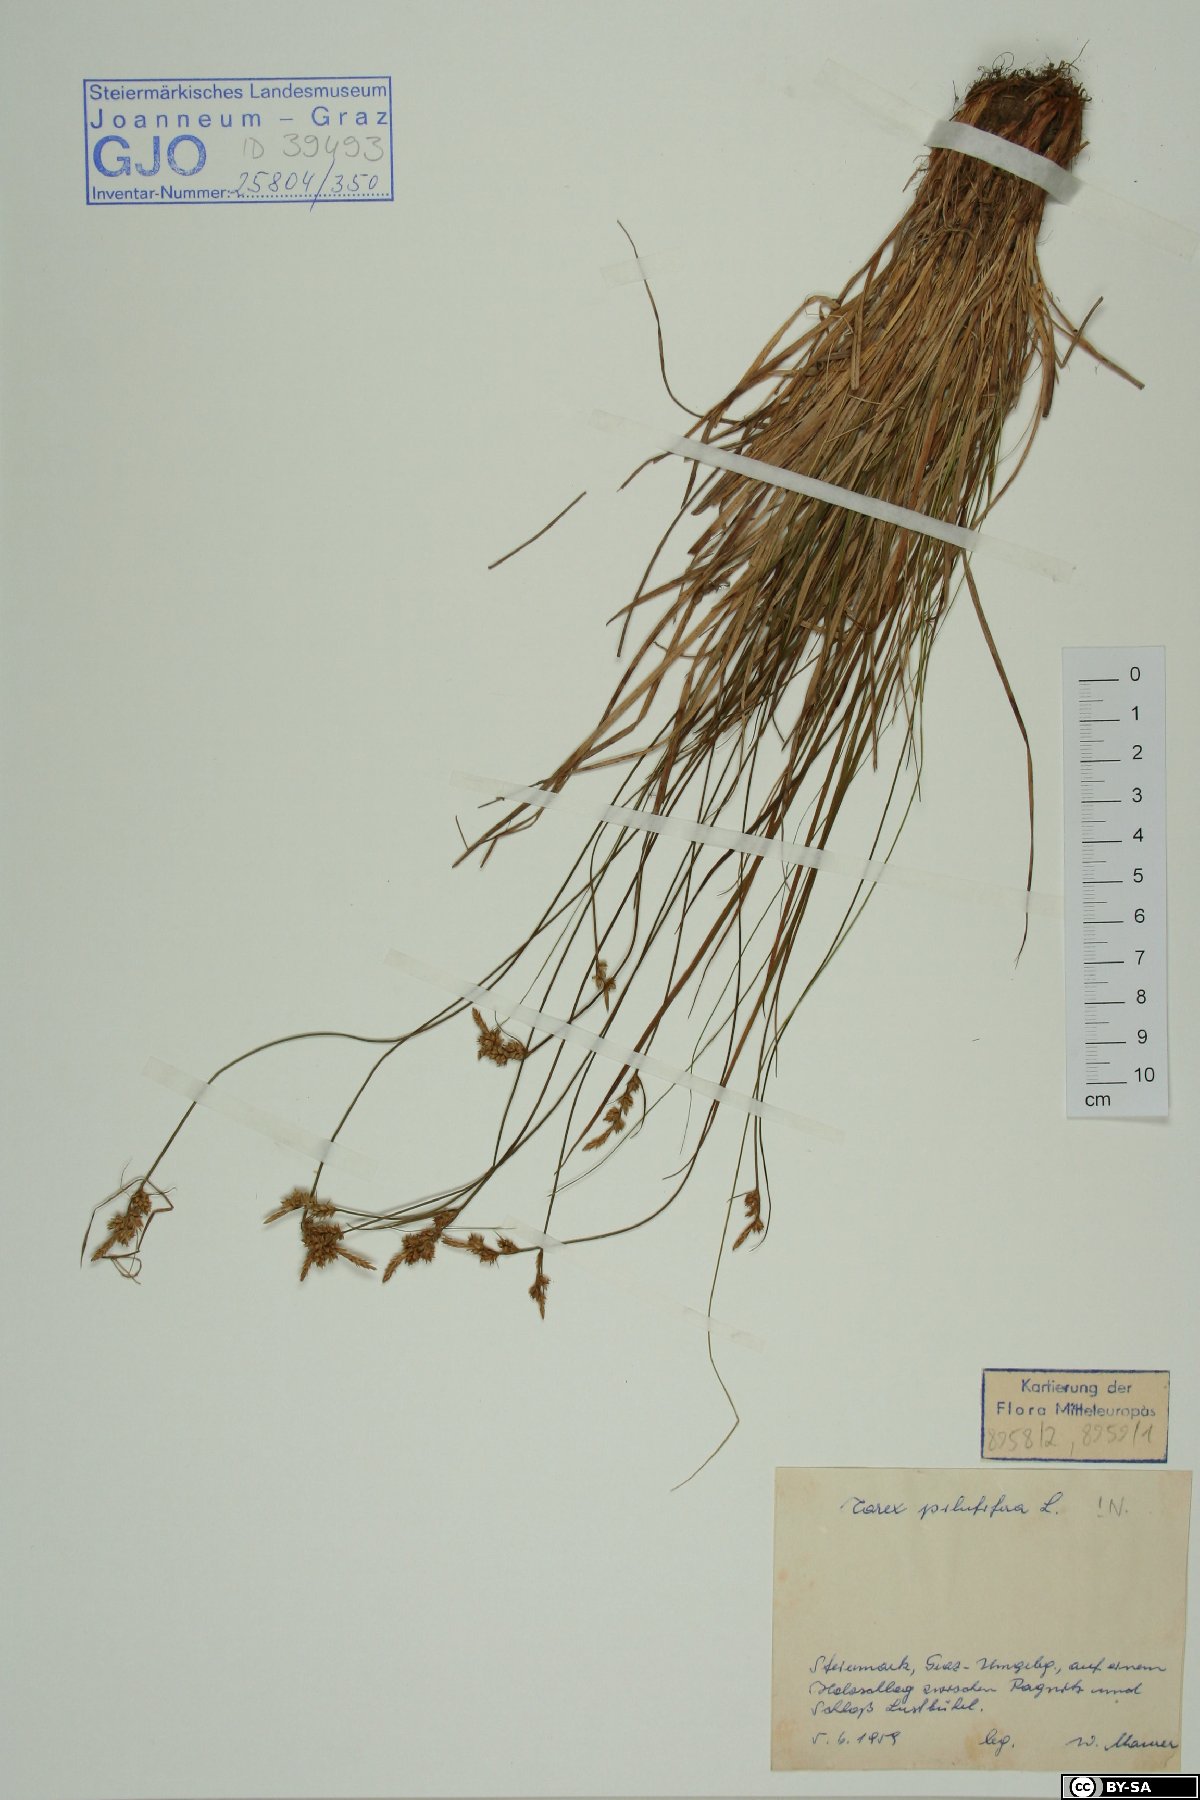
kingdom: Plantae
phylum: Tracheophyta
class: Liliopsida
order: Poales
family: Cyperaceae
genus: Carex
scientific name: Carex pilulifera
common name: Pill sedge
